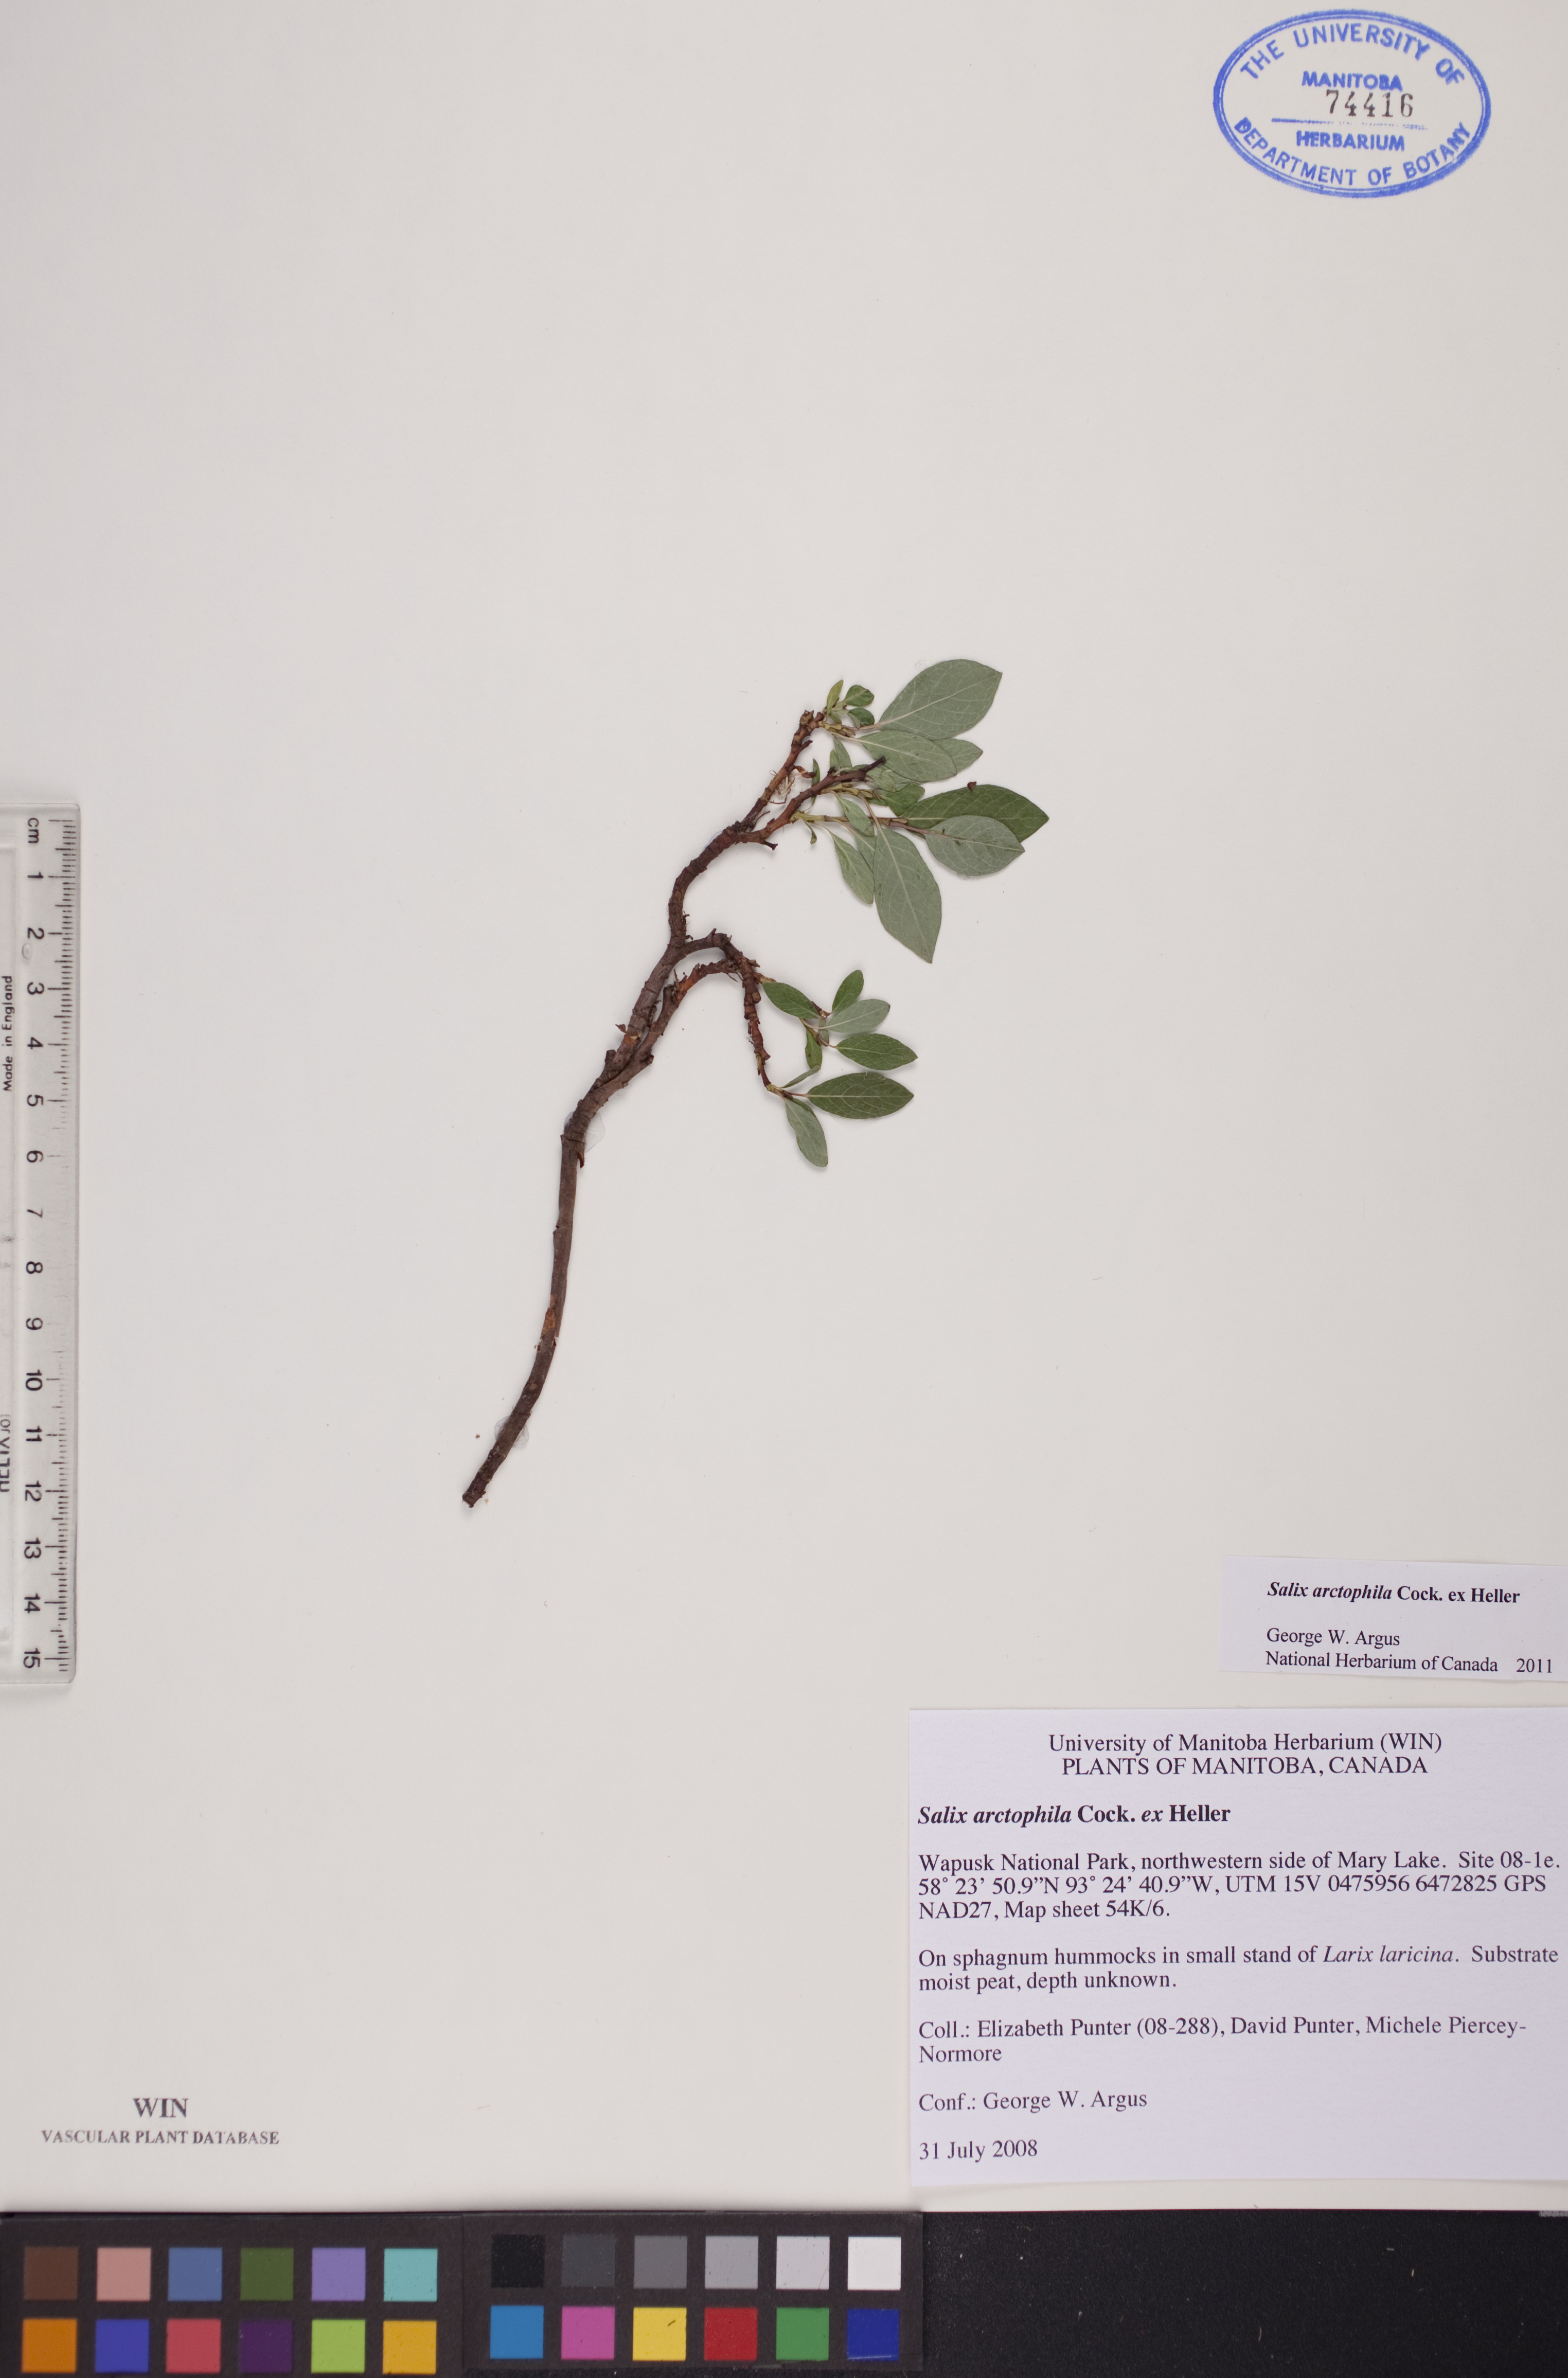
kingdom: Plantae
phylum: Tracheophyta
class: Magnoliopsida
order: Malpighiales
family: Salicaceae
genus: Salix
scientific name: Salix arctophila
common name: Greenland willow
